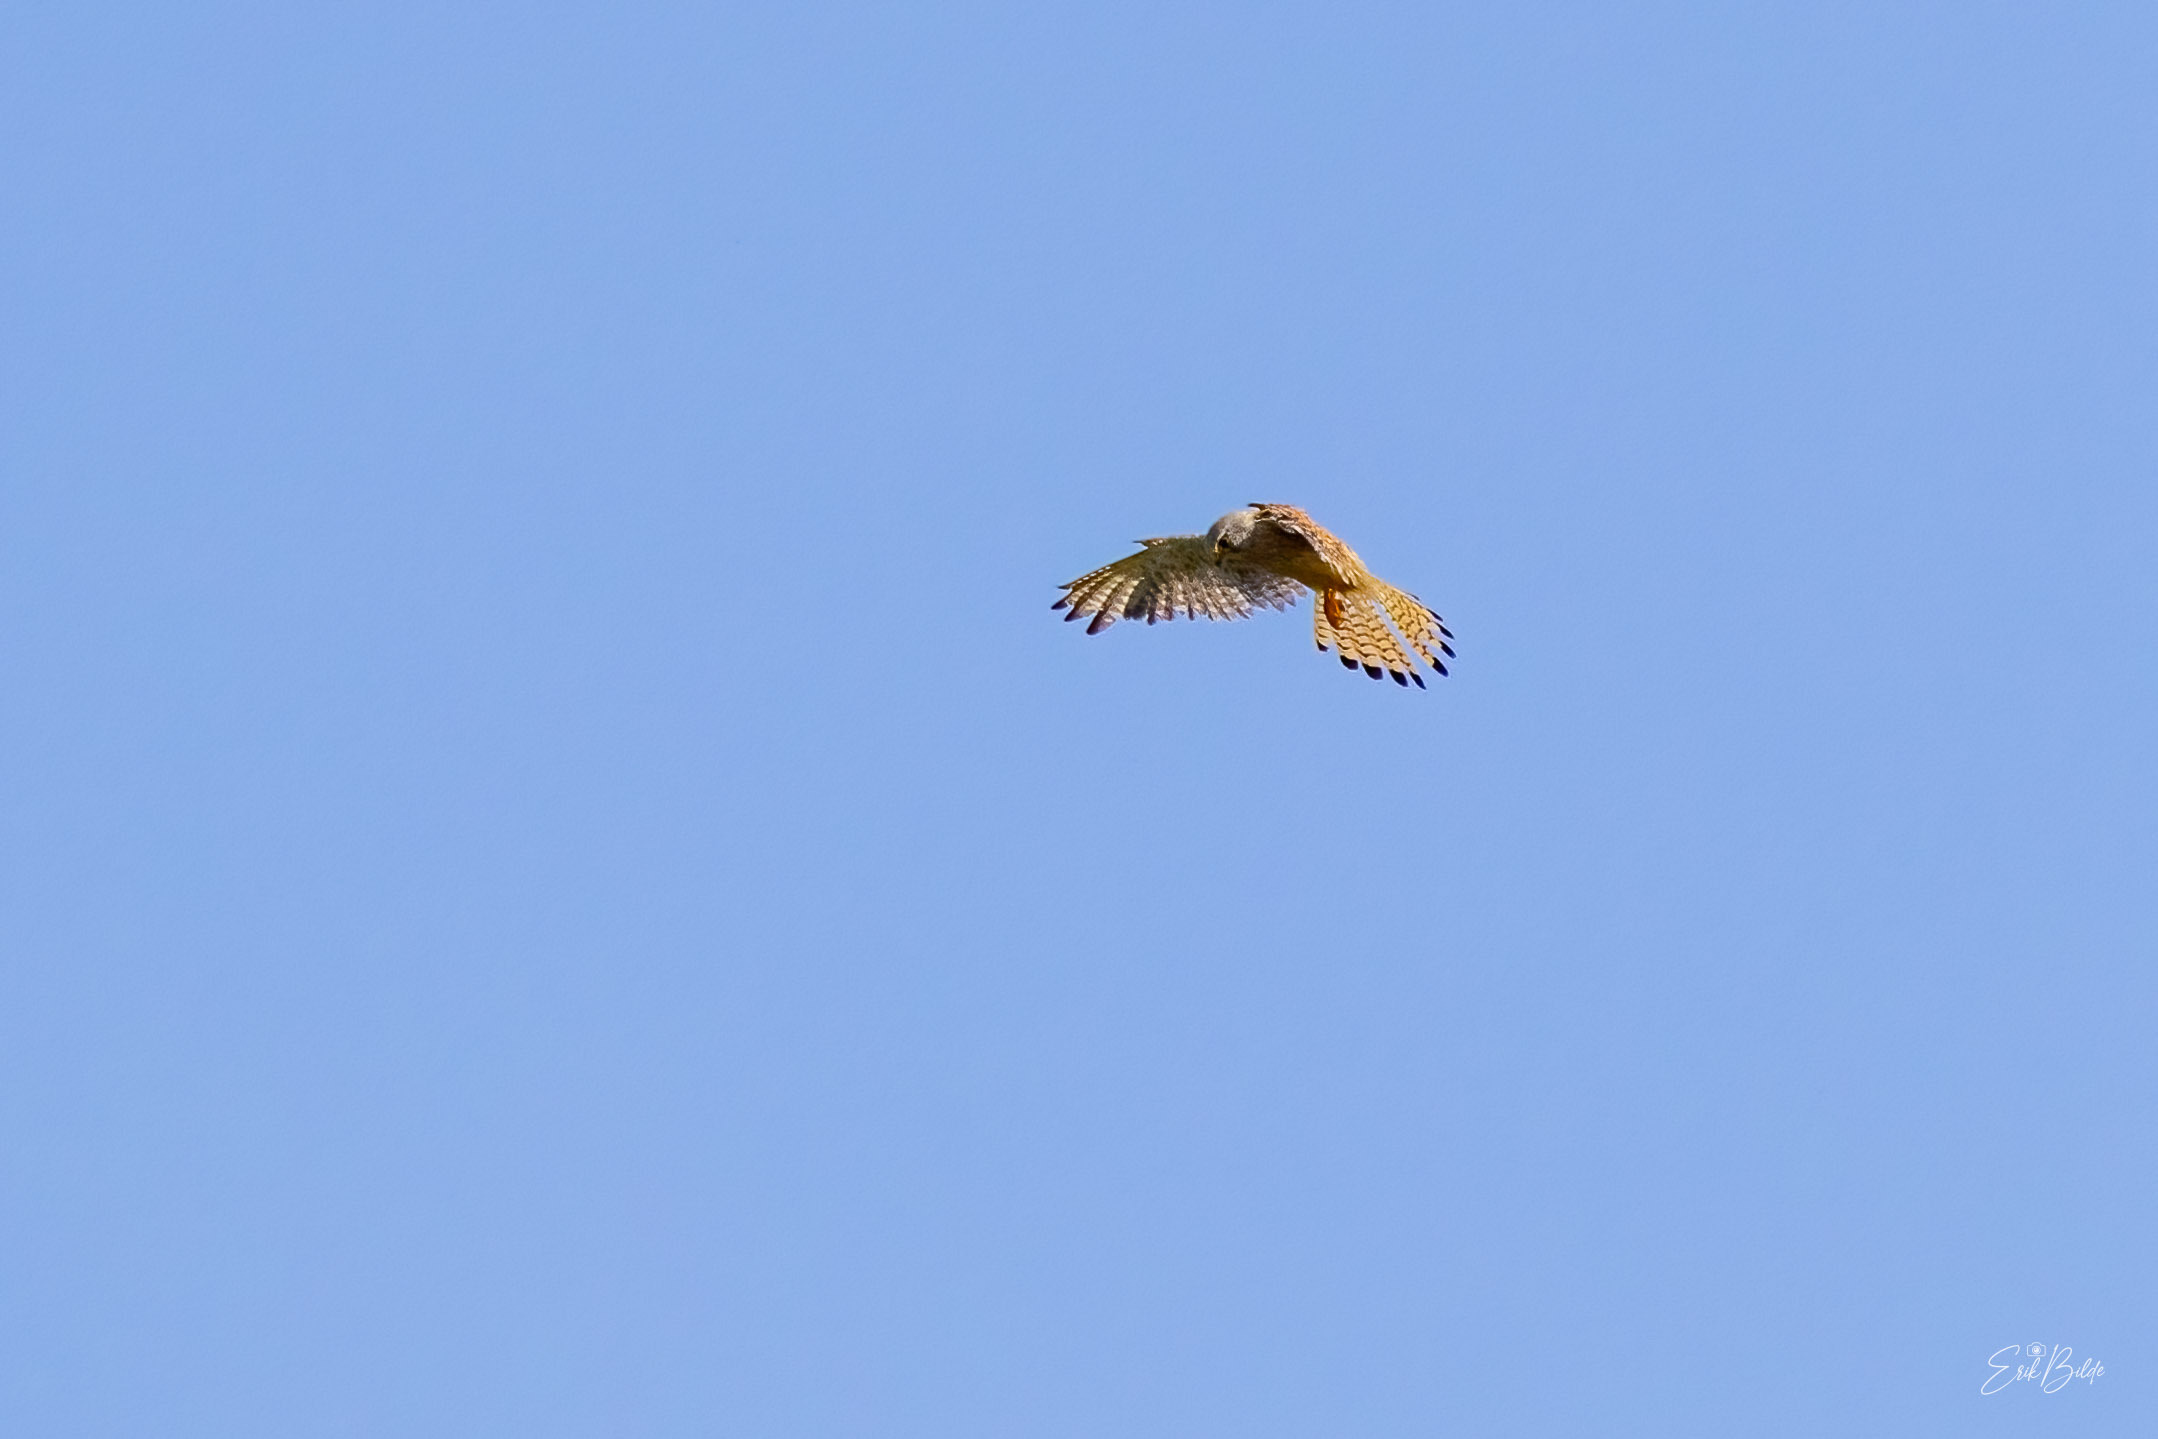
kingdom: Animalia
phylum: Chordata
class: Aves
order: Falconiformes
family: Falconidae
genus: Falco
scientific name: Falco tinnunculus
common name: Tårnfalk
